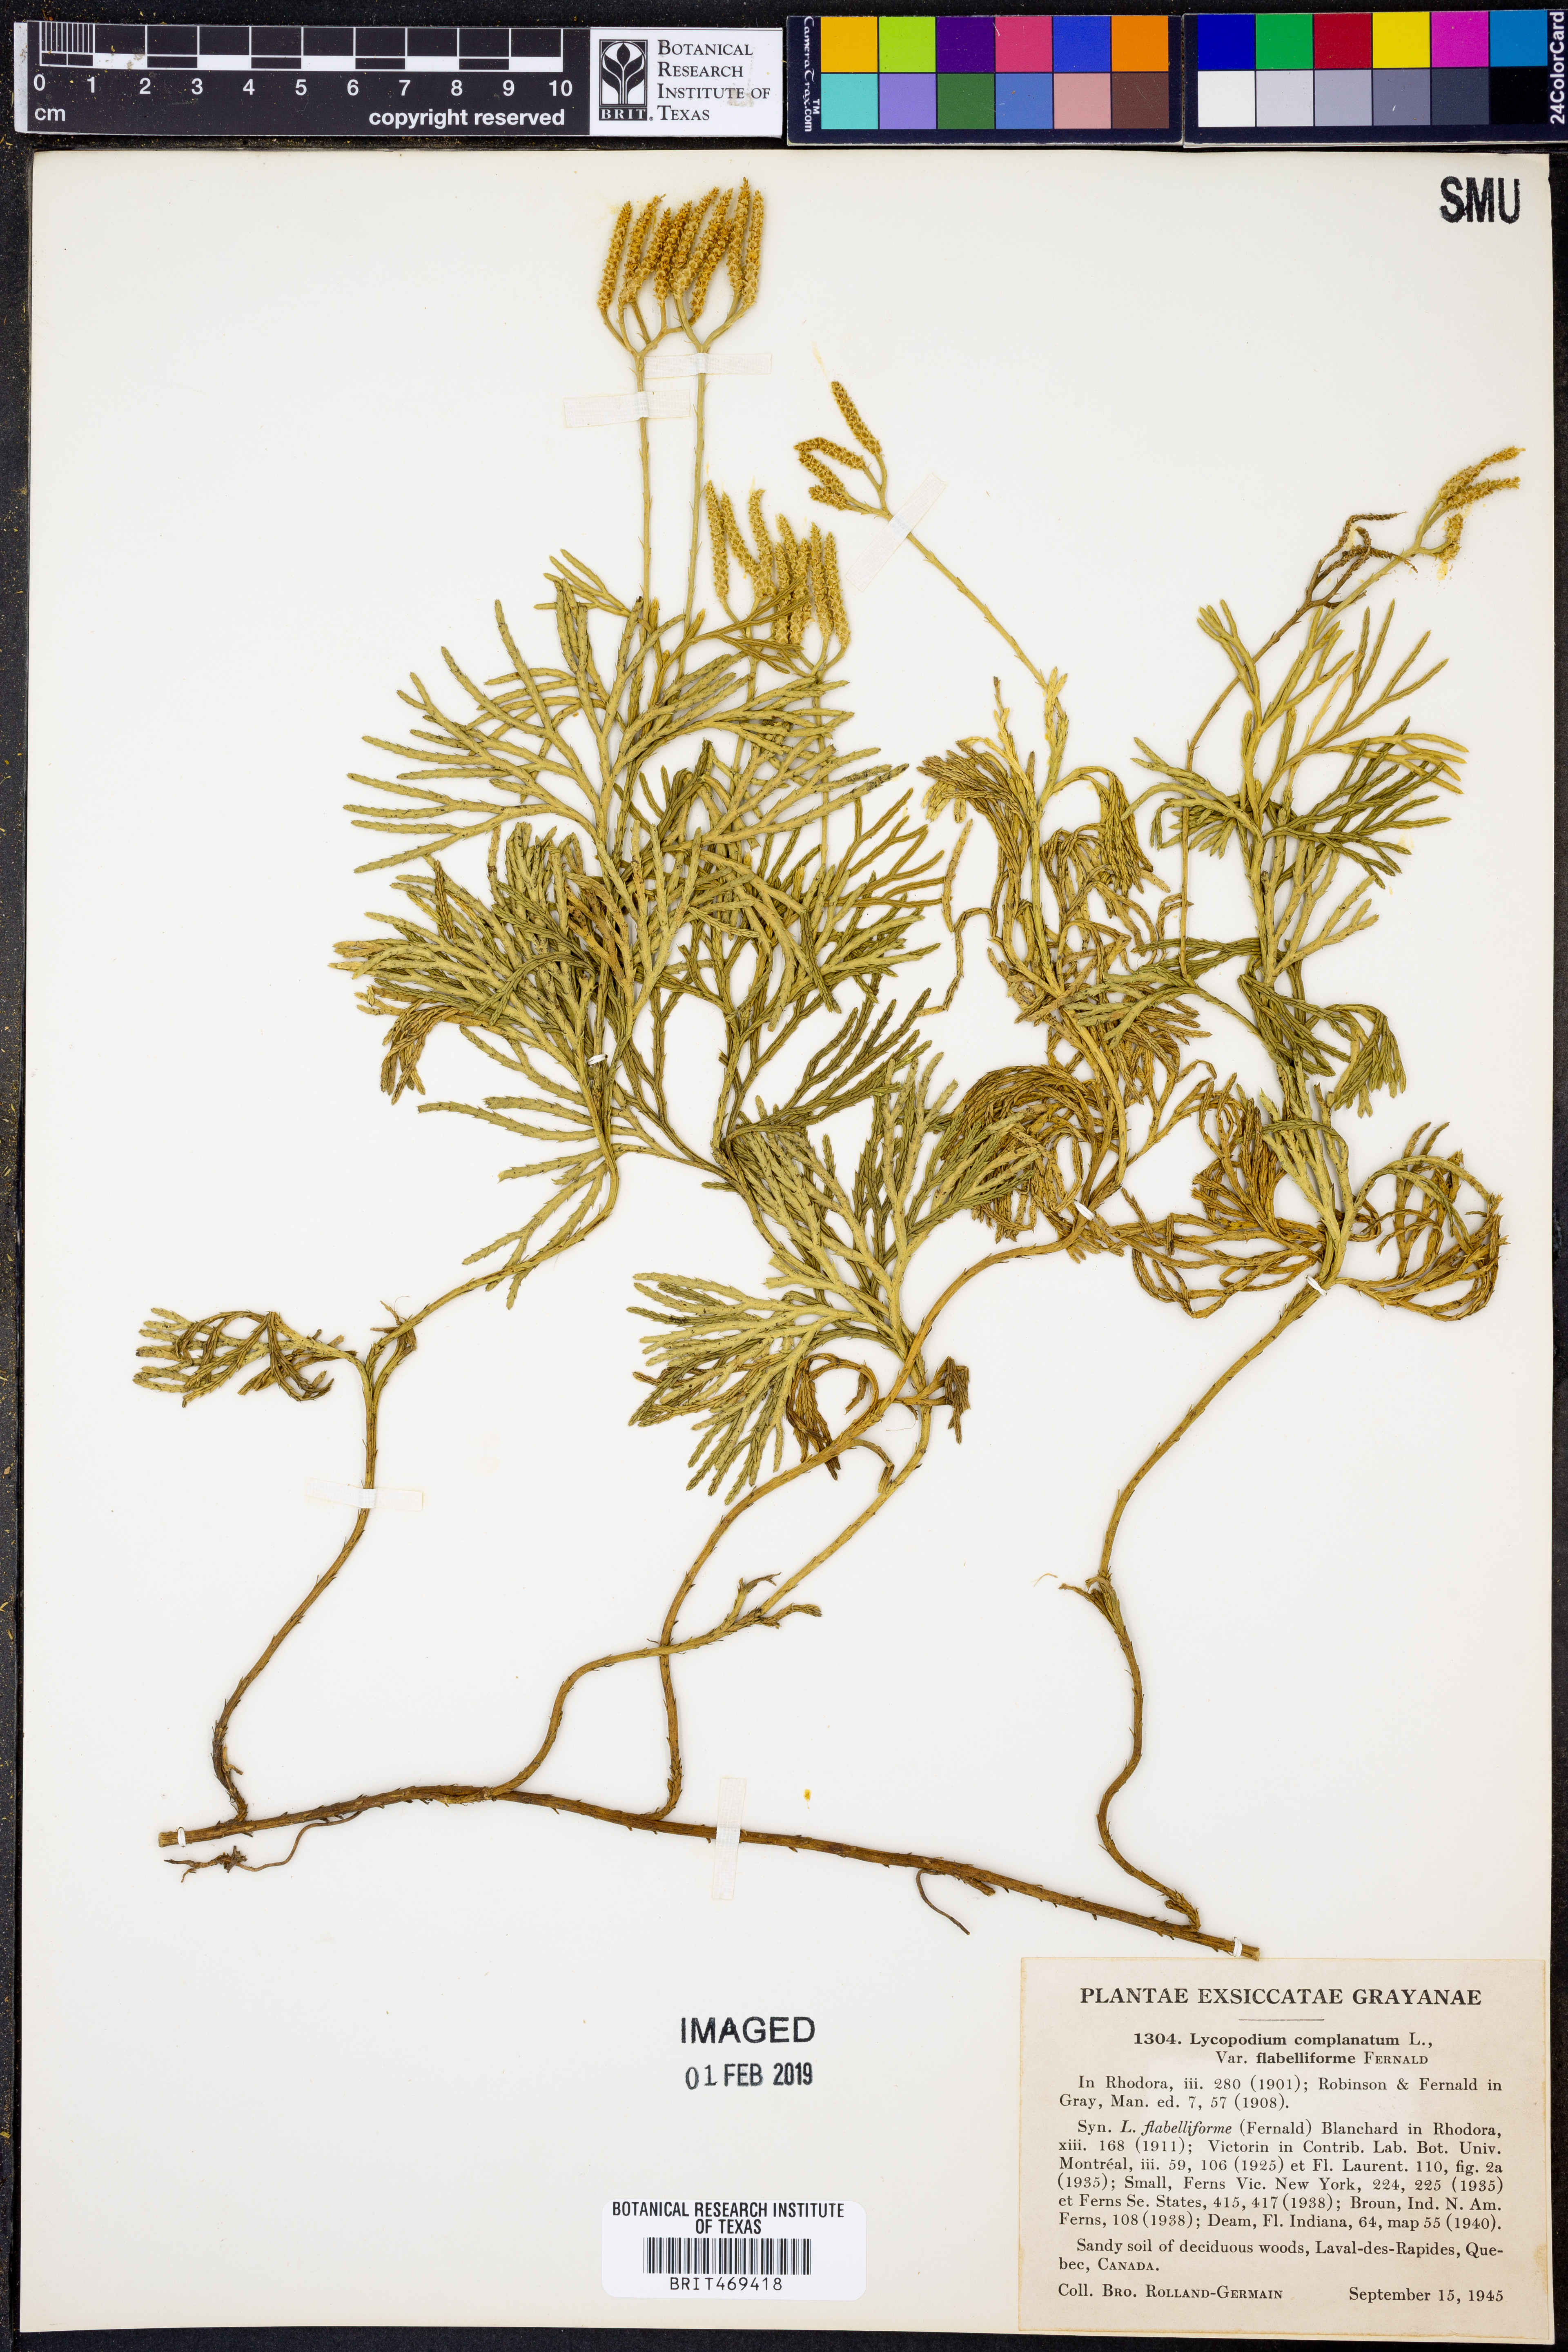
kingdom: Plantae
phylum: Tracheophyta
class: Lycopodiopsida
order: Lycopodiales
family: Lycopodiaceae
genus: Diphasiastrum
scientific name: Diphasiastrum digitatum
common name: Southern running-pine
